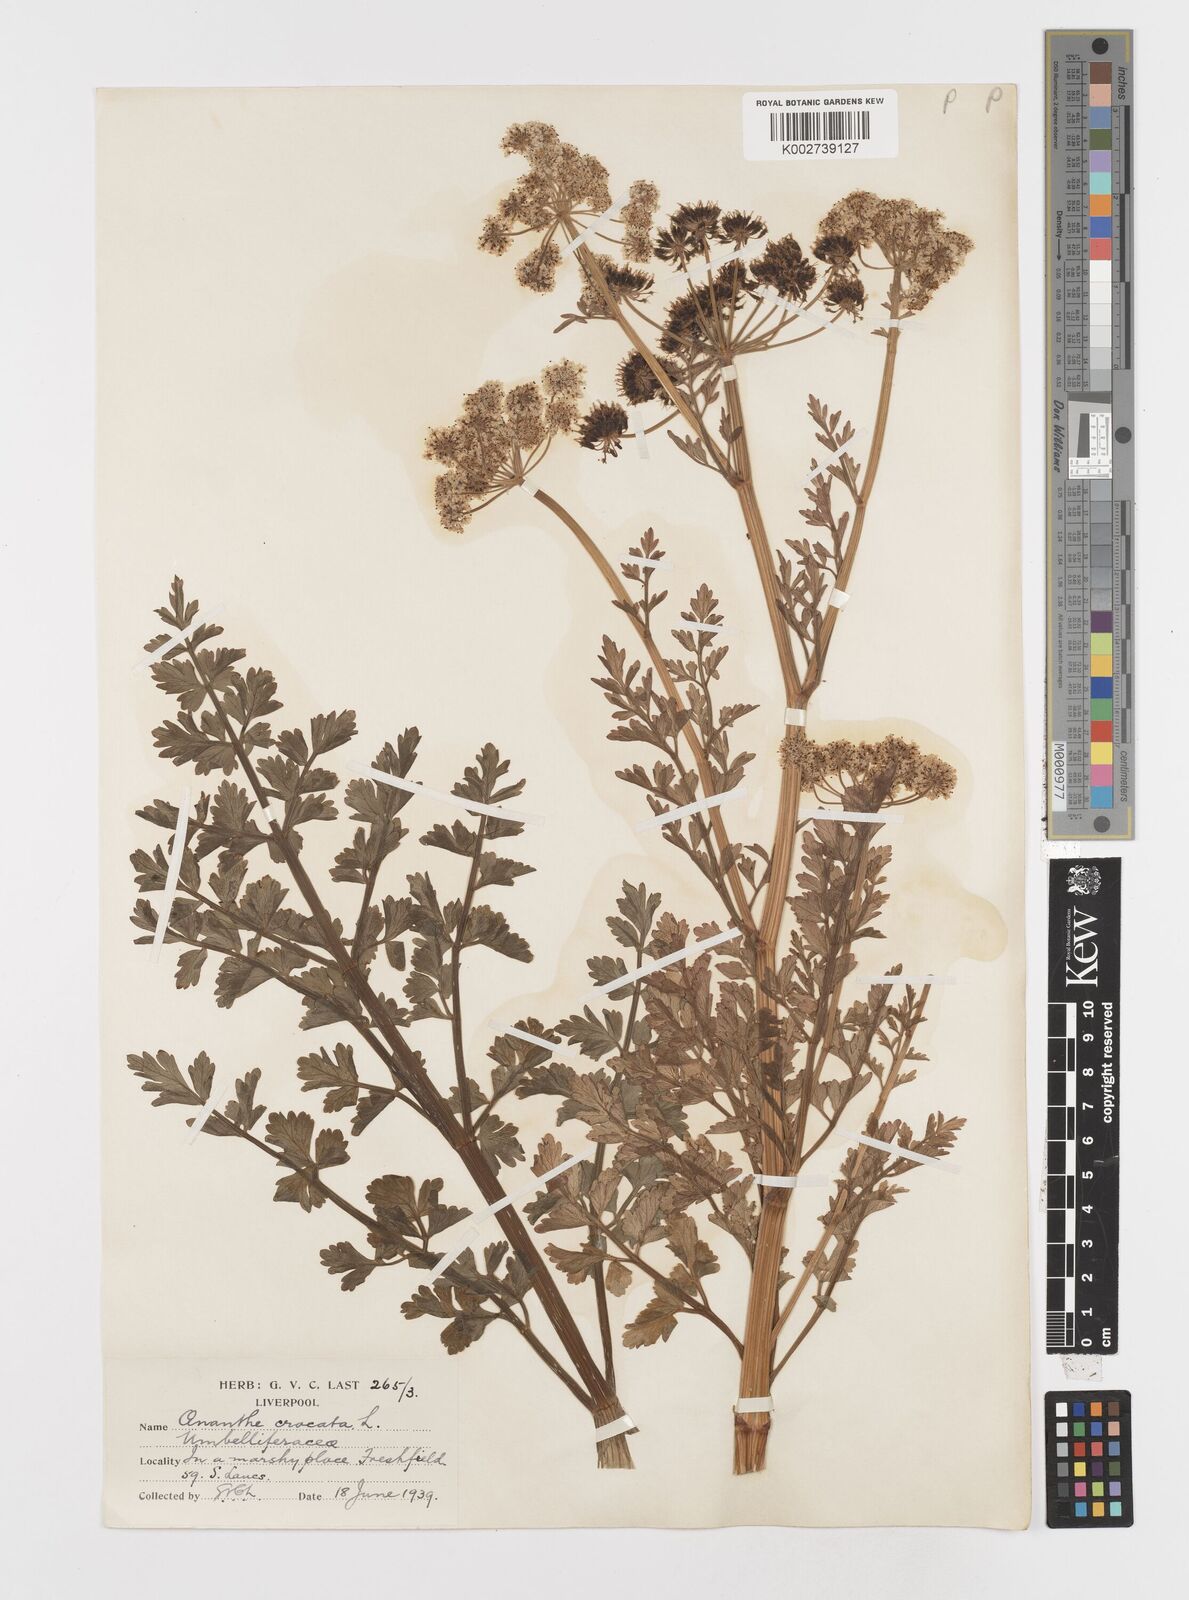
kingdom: Plantae
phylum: Tracheophyta
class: Magnoliopsida
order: Apiales
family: Apiaceae
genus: Oenanthe
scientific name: Oenanthe crocata
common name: Hemlock water-dropwort
